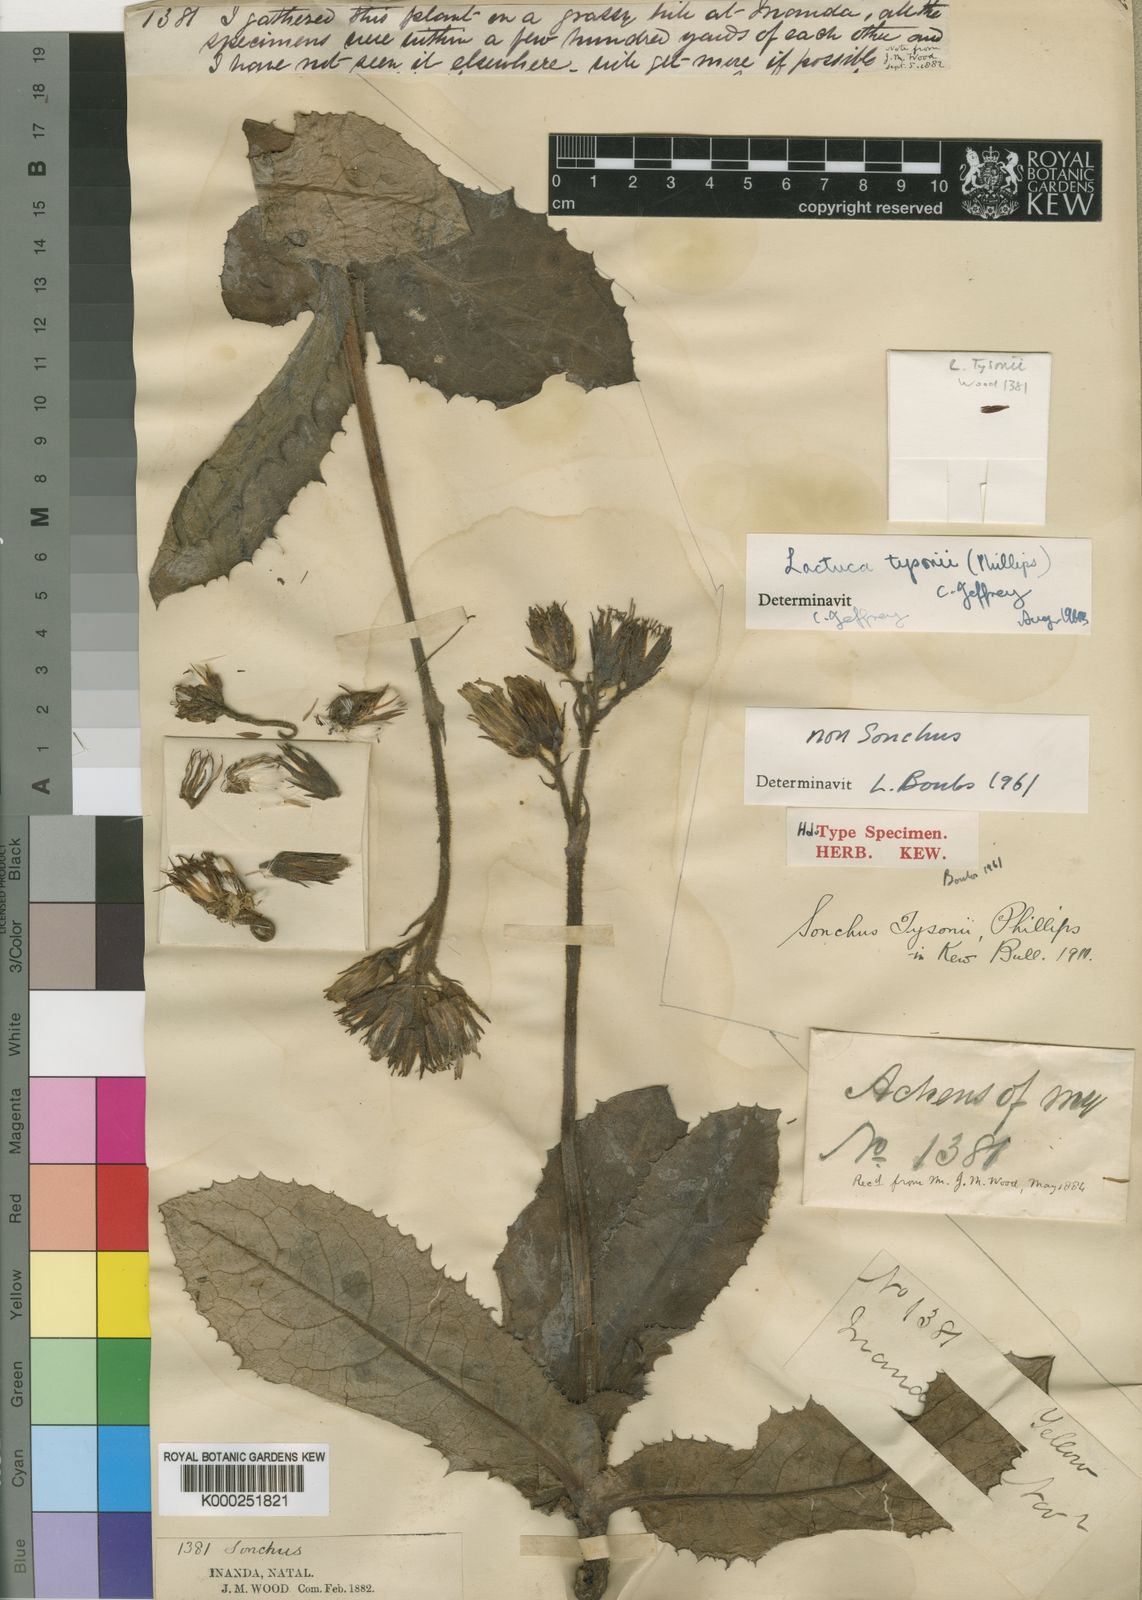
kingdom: Plantae
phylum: Tracheophyta
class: Magnoliopsida
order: Asterales
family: Asteraceae
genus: Lactuca
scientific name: Lactuca tysonii
